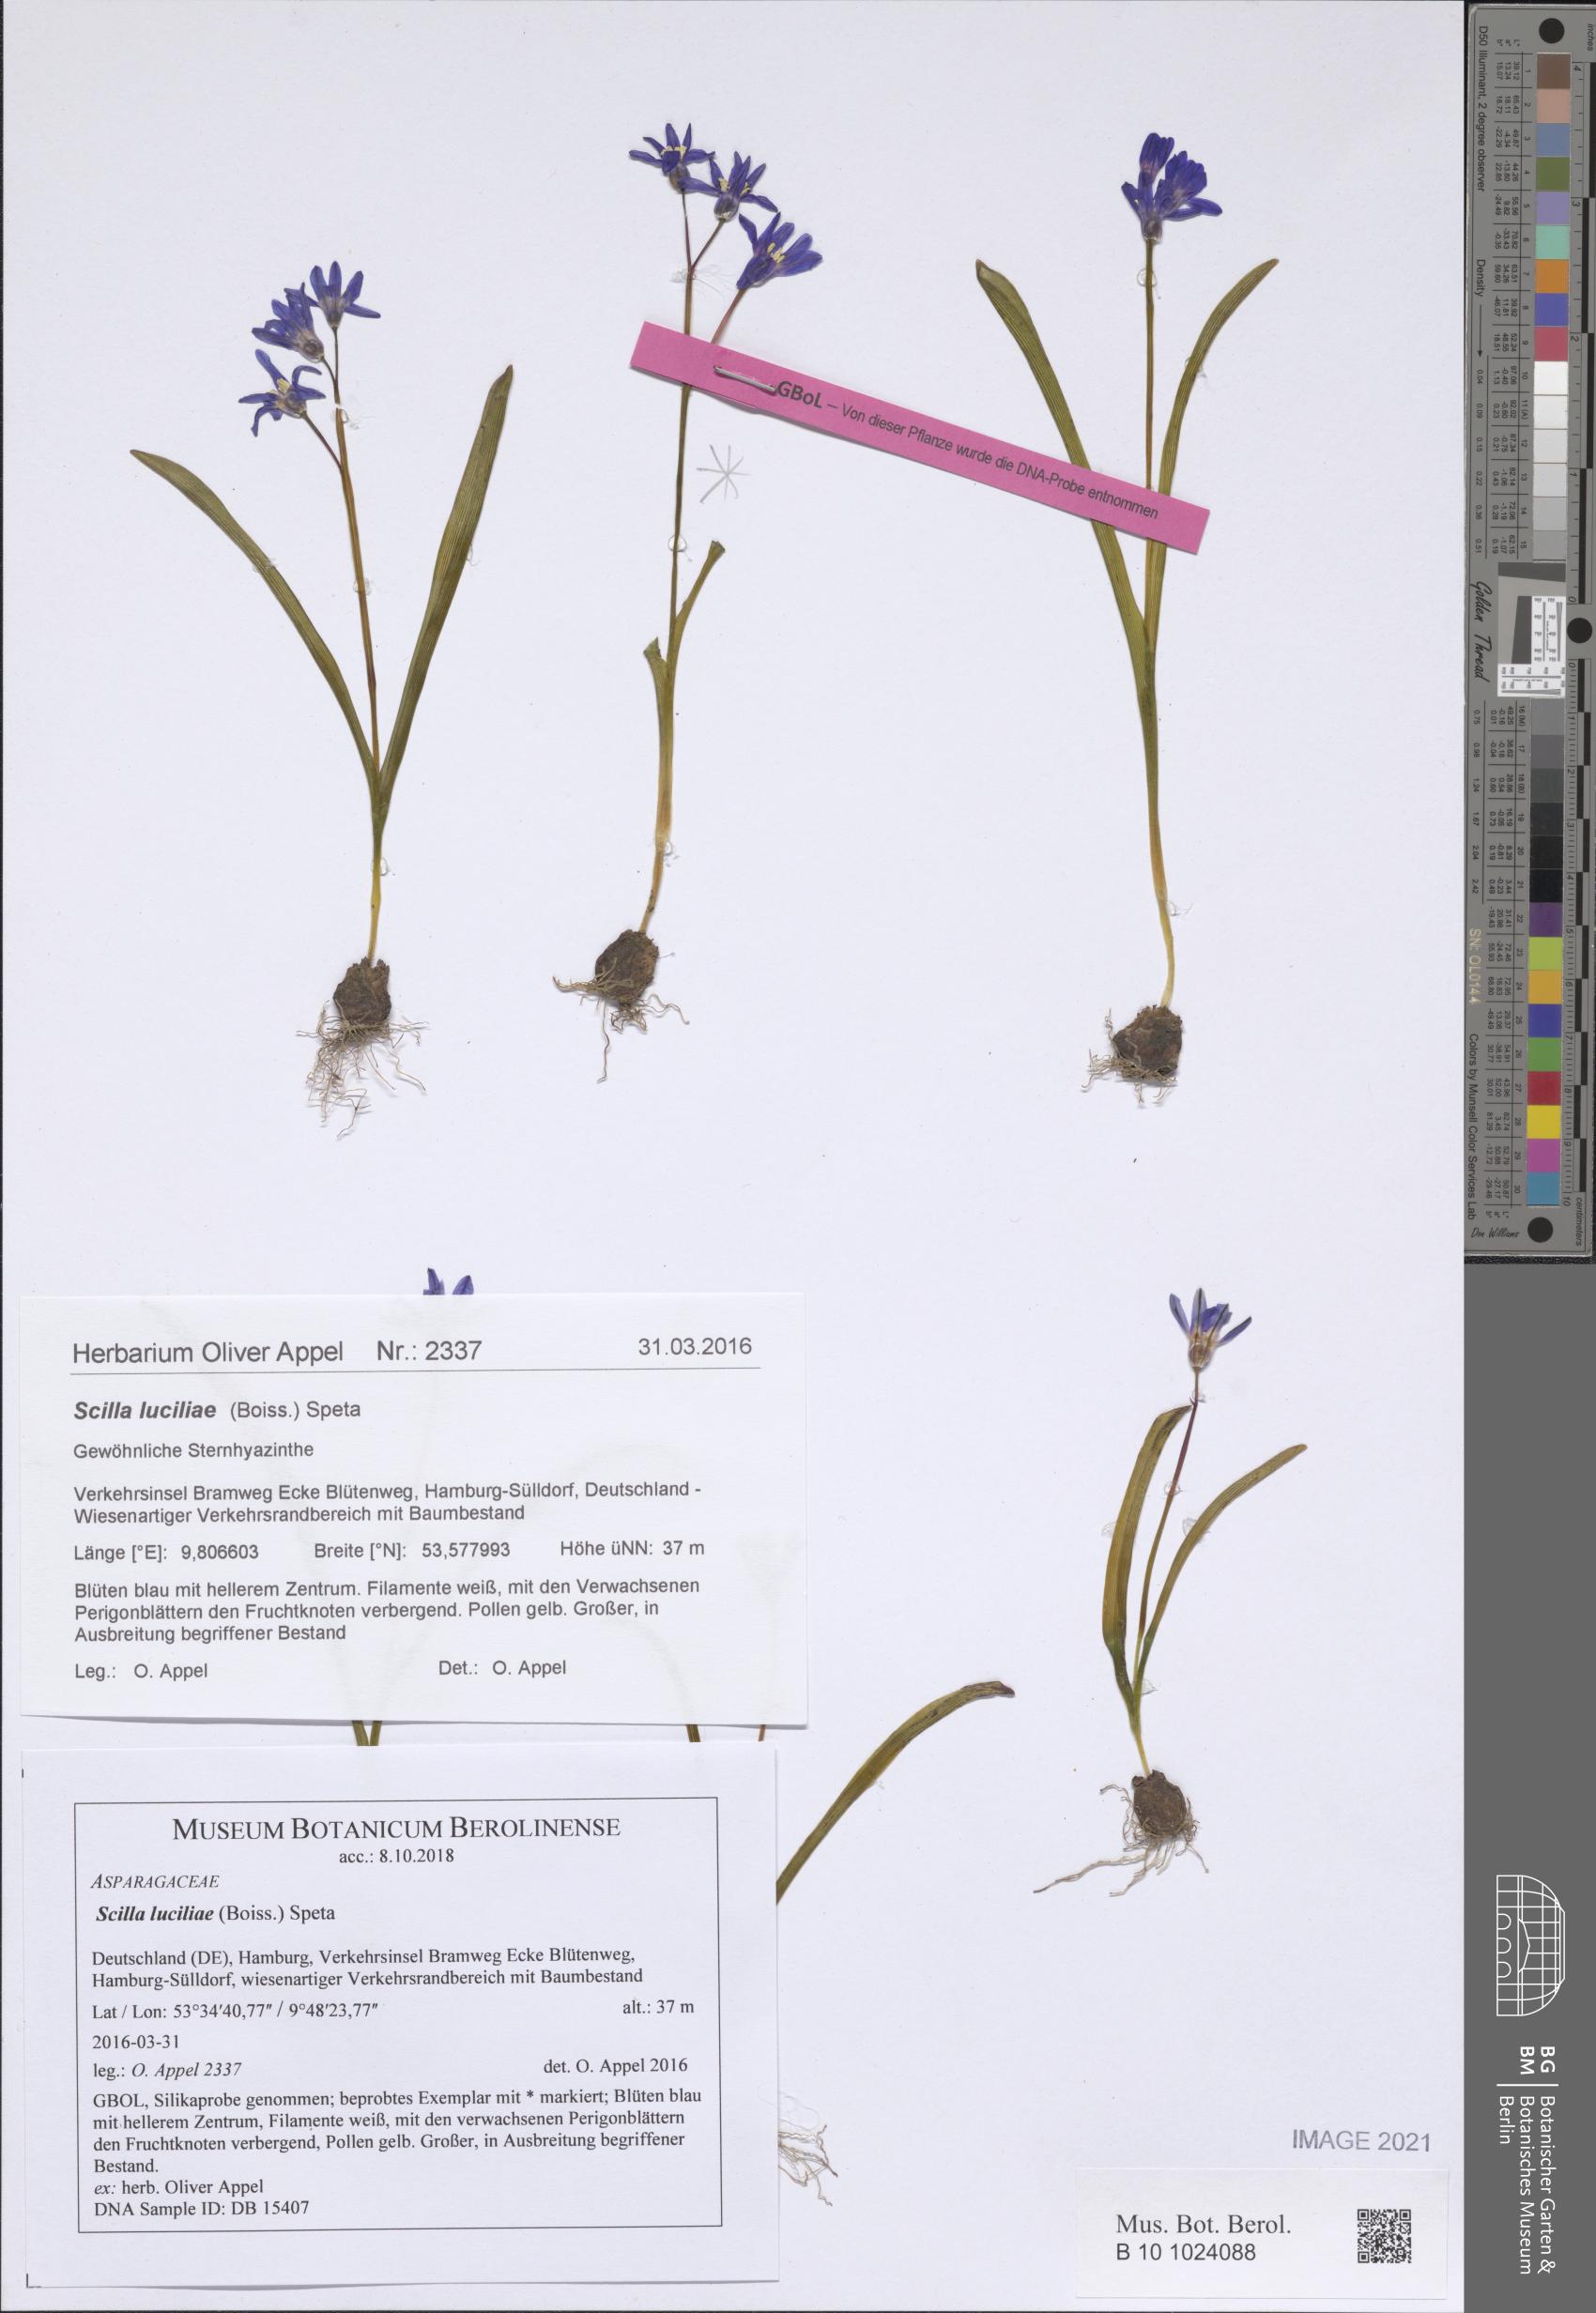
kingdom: Plantae
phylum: Tracheophyta
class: Liliopsida
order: Asparagales
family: Asparagaceae
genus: Scilla
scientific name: Scilla luciliae
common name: Boissier's glory-of-the-snow
